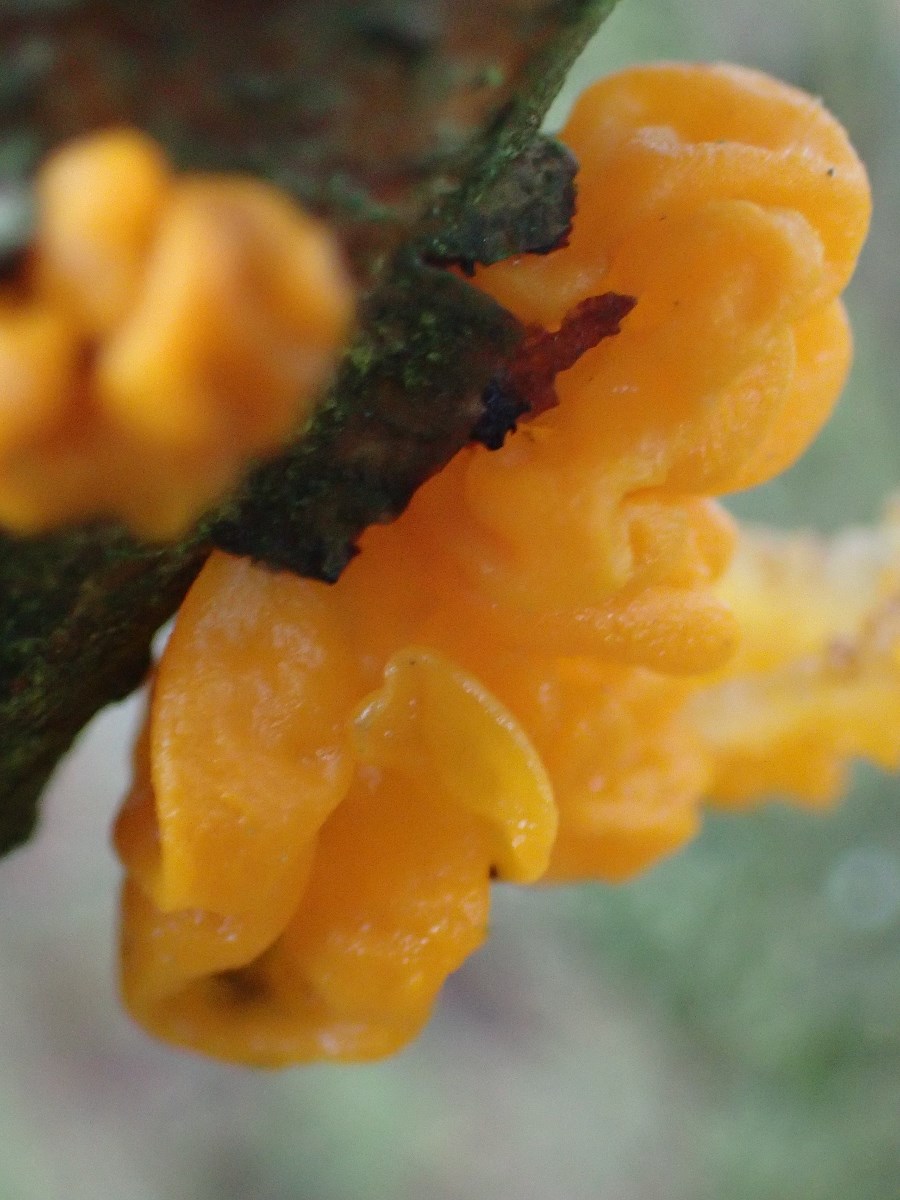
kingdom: Fungi
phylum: Basidiomycota
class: Tremellomycetes
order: Tremellales
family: Tremellaceae
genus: Tremella
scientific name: Tremella mesenterica
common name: gul bævresvamp
